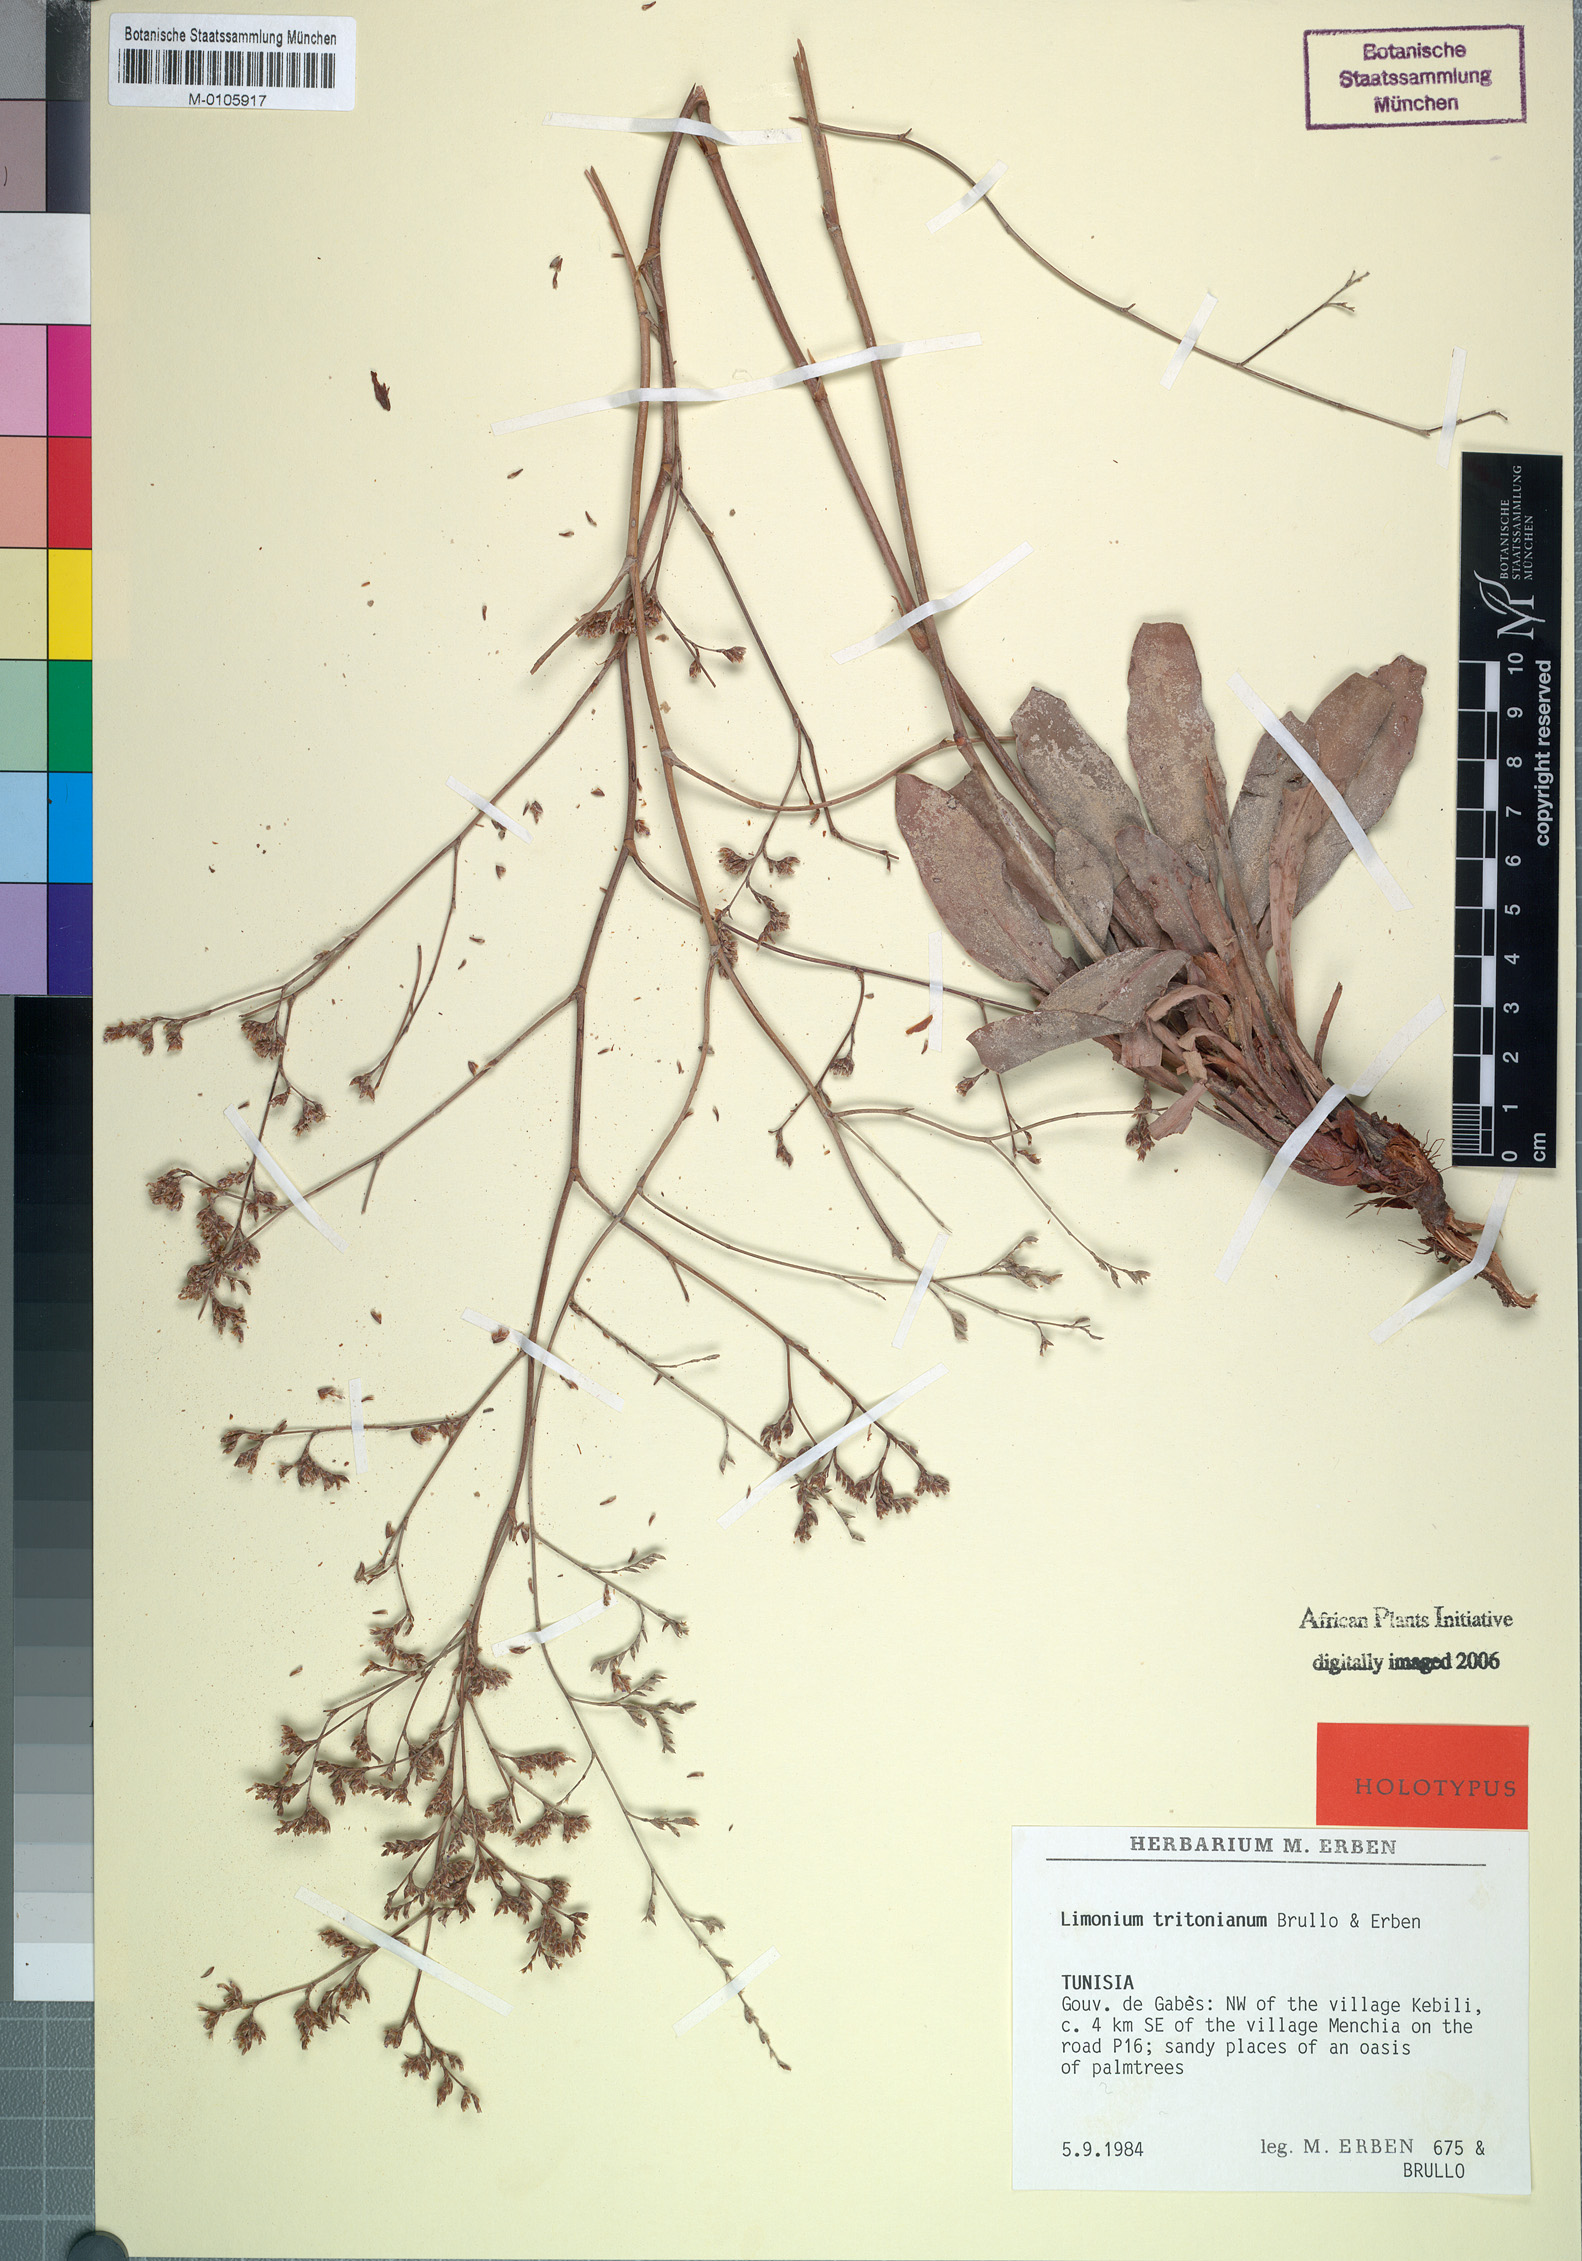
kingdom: Plantae
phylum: Tracheophyta
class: Magnoliopsida
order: Caryophyllales
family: Plumbaginaceae
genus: Limonium
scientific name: Limonium tritonianum
